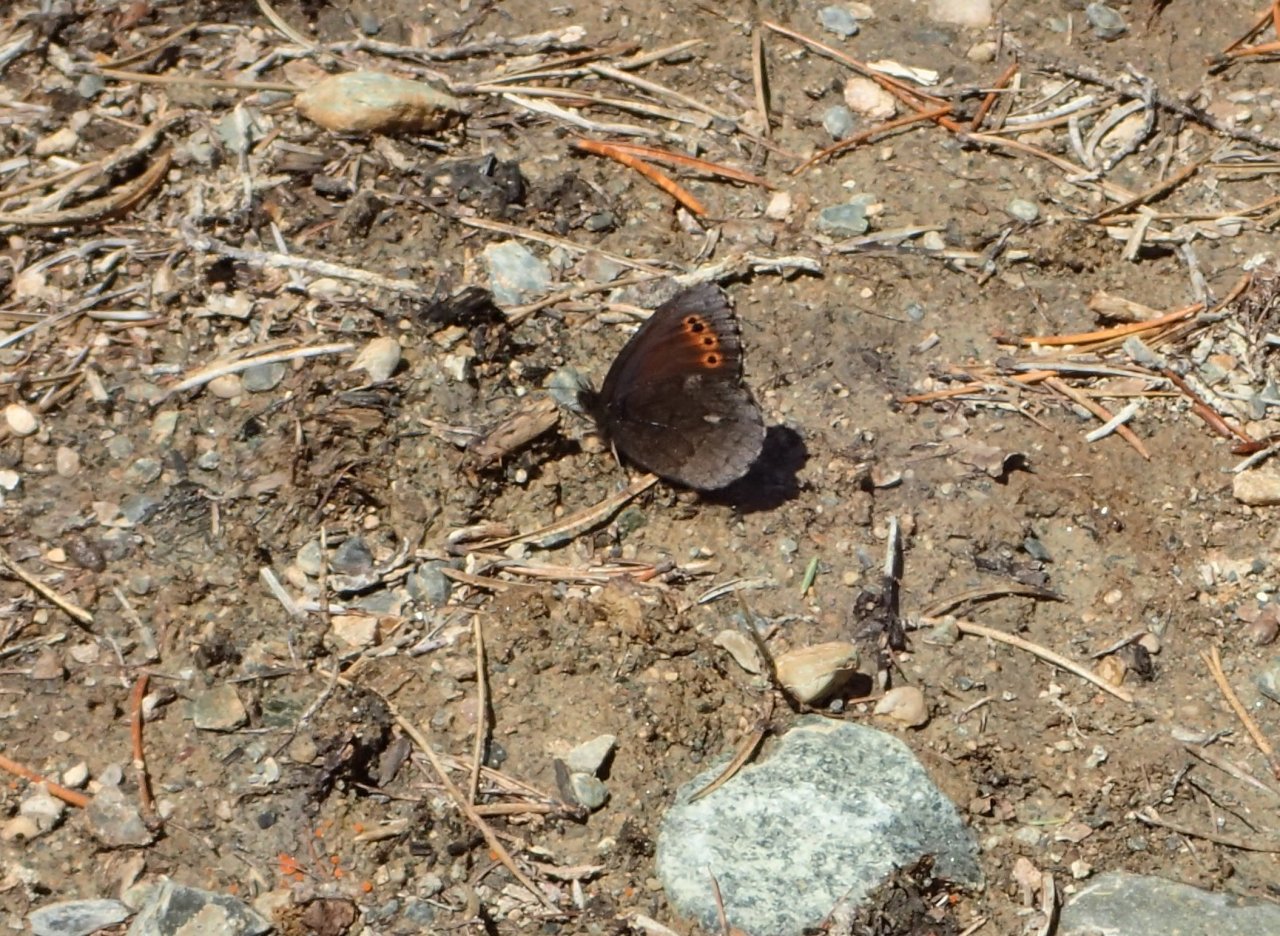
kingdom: Animalia
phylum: Arthropoda
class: Insecta
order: Lepidoptera
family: Nymphalidae
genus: Erebia
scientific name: Erebia disa
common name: Taiga Alpine
